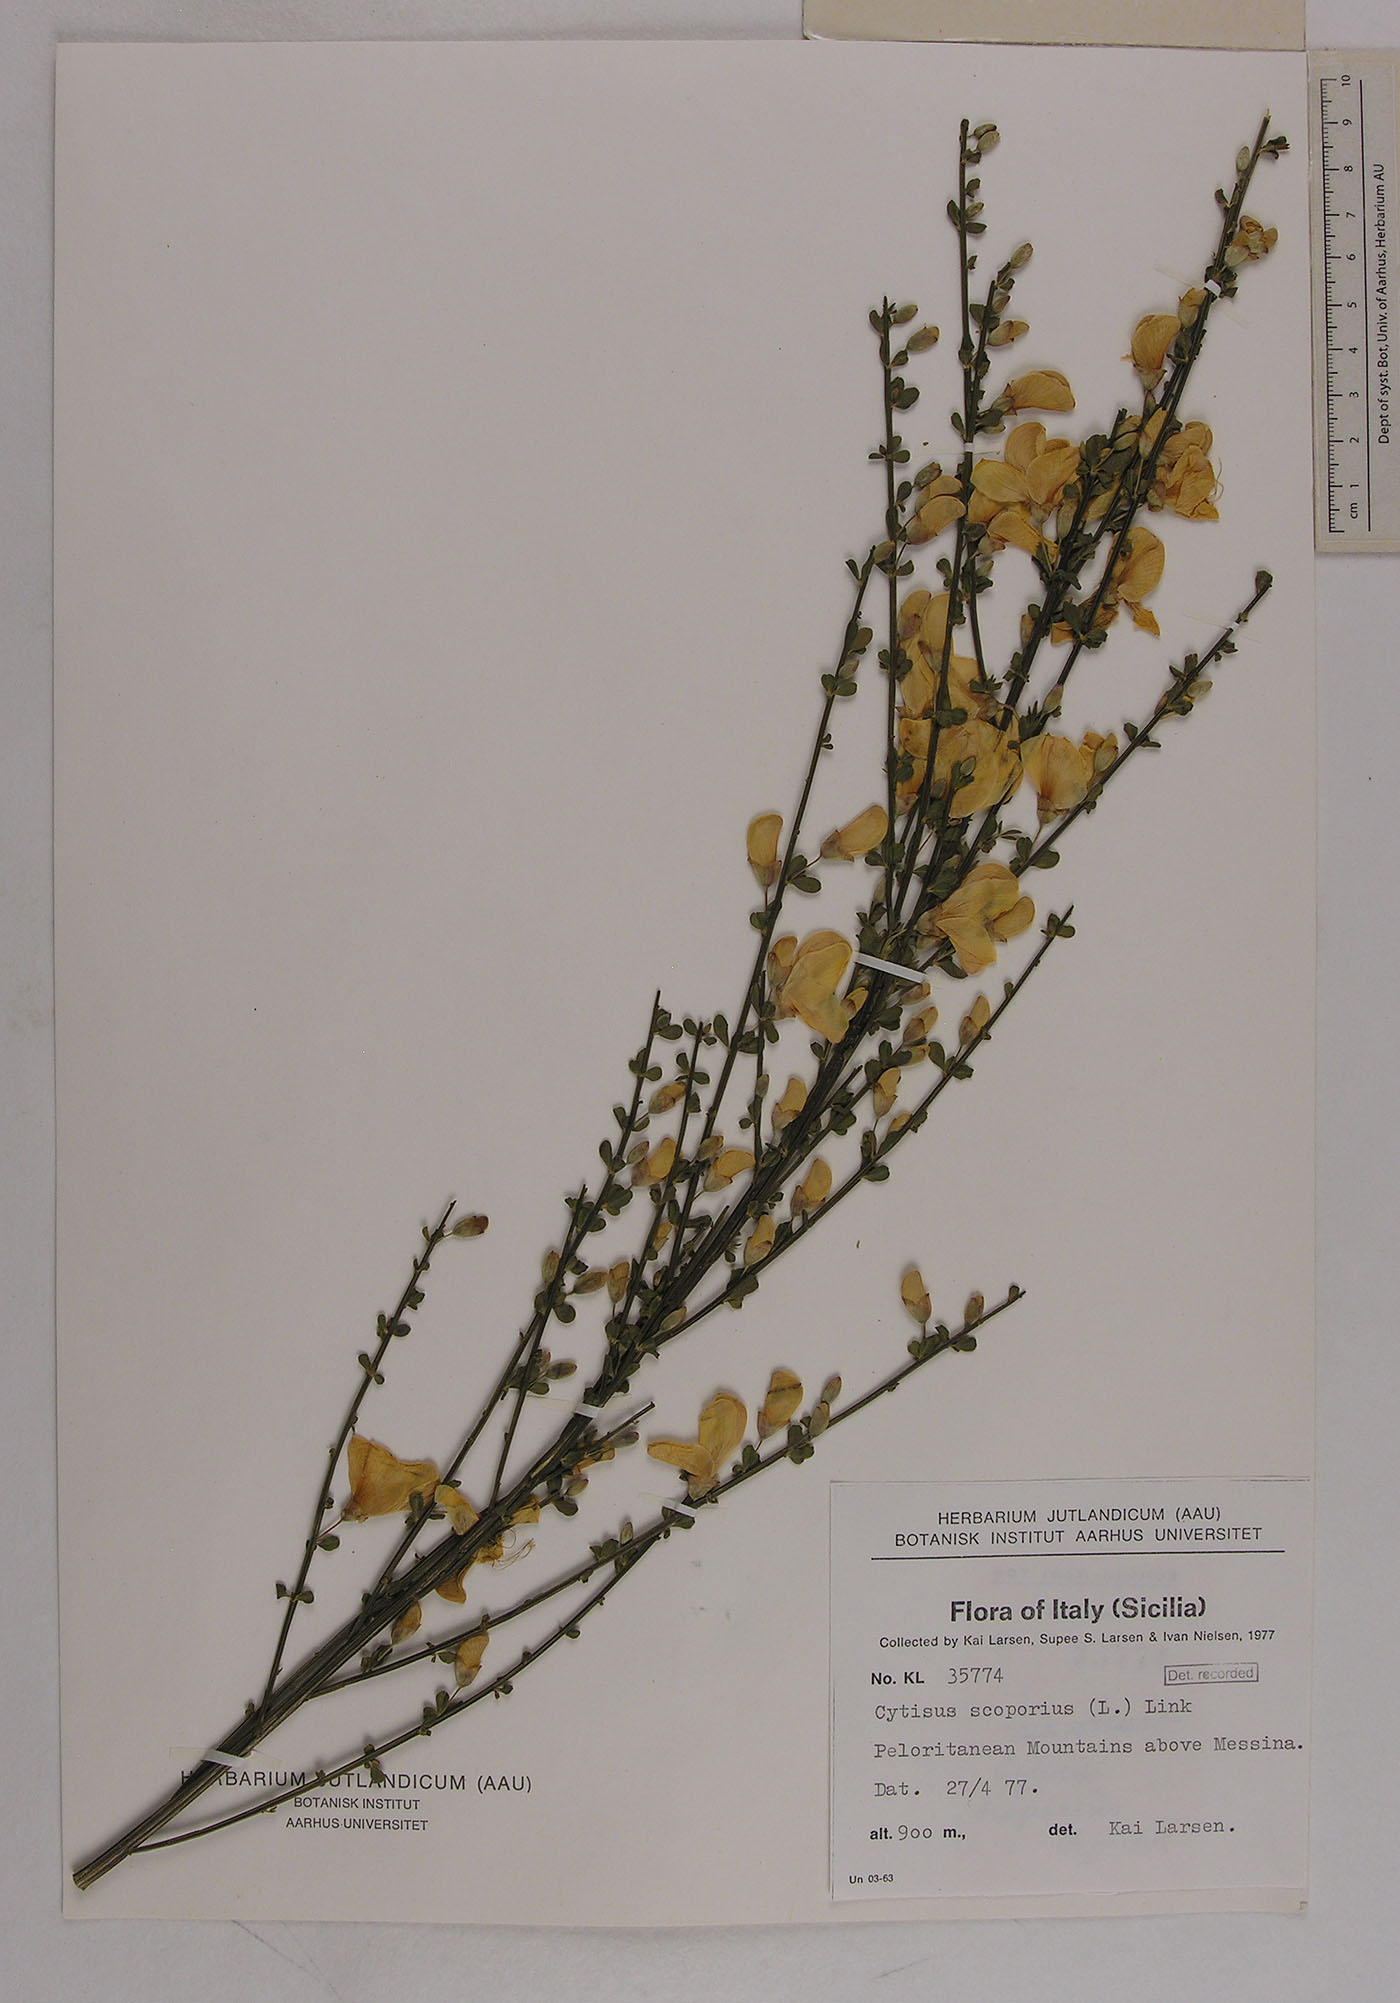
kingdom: Plantae
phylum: Tracheophyta
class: Magnoliopsida
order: Fabales
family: Fabaceae
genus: Cytisus
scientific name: Cytisus scoparius
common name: Scotch broom
